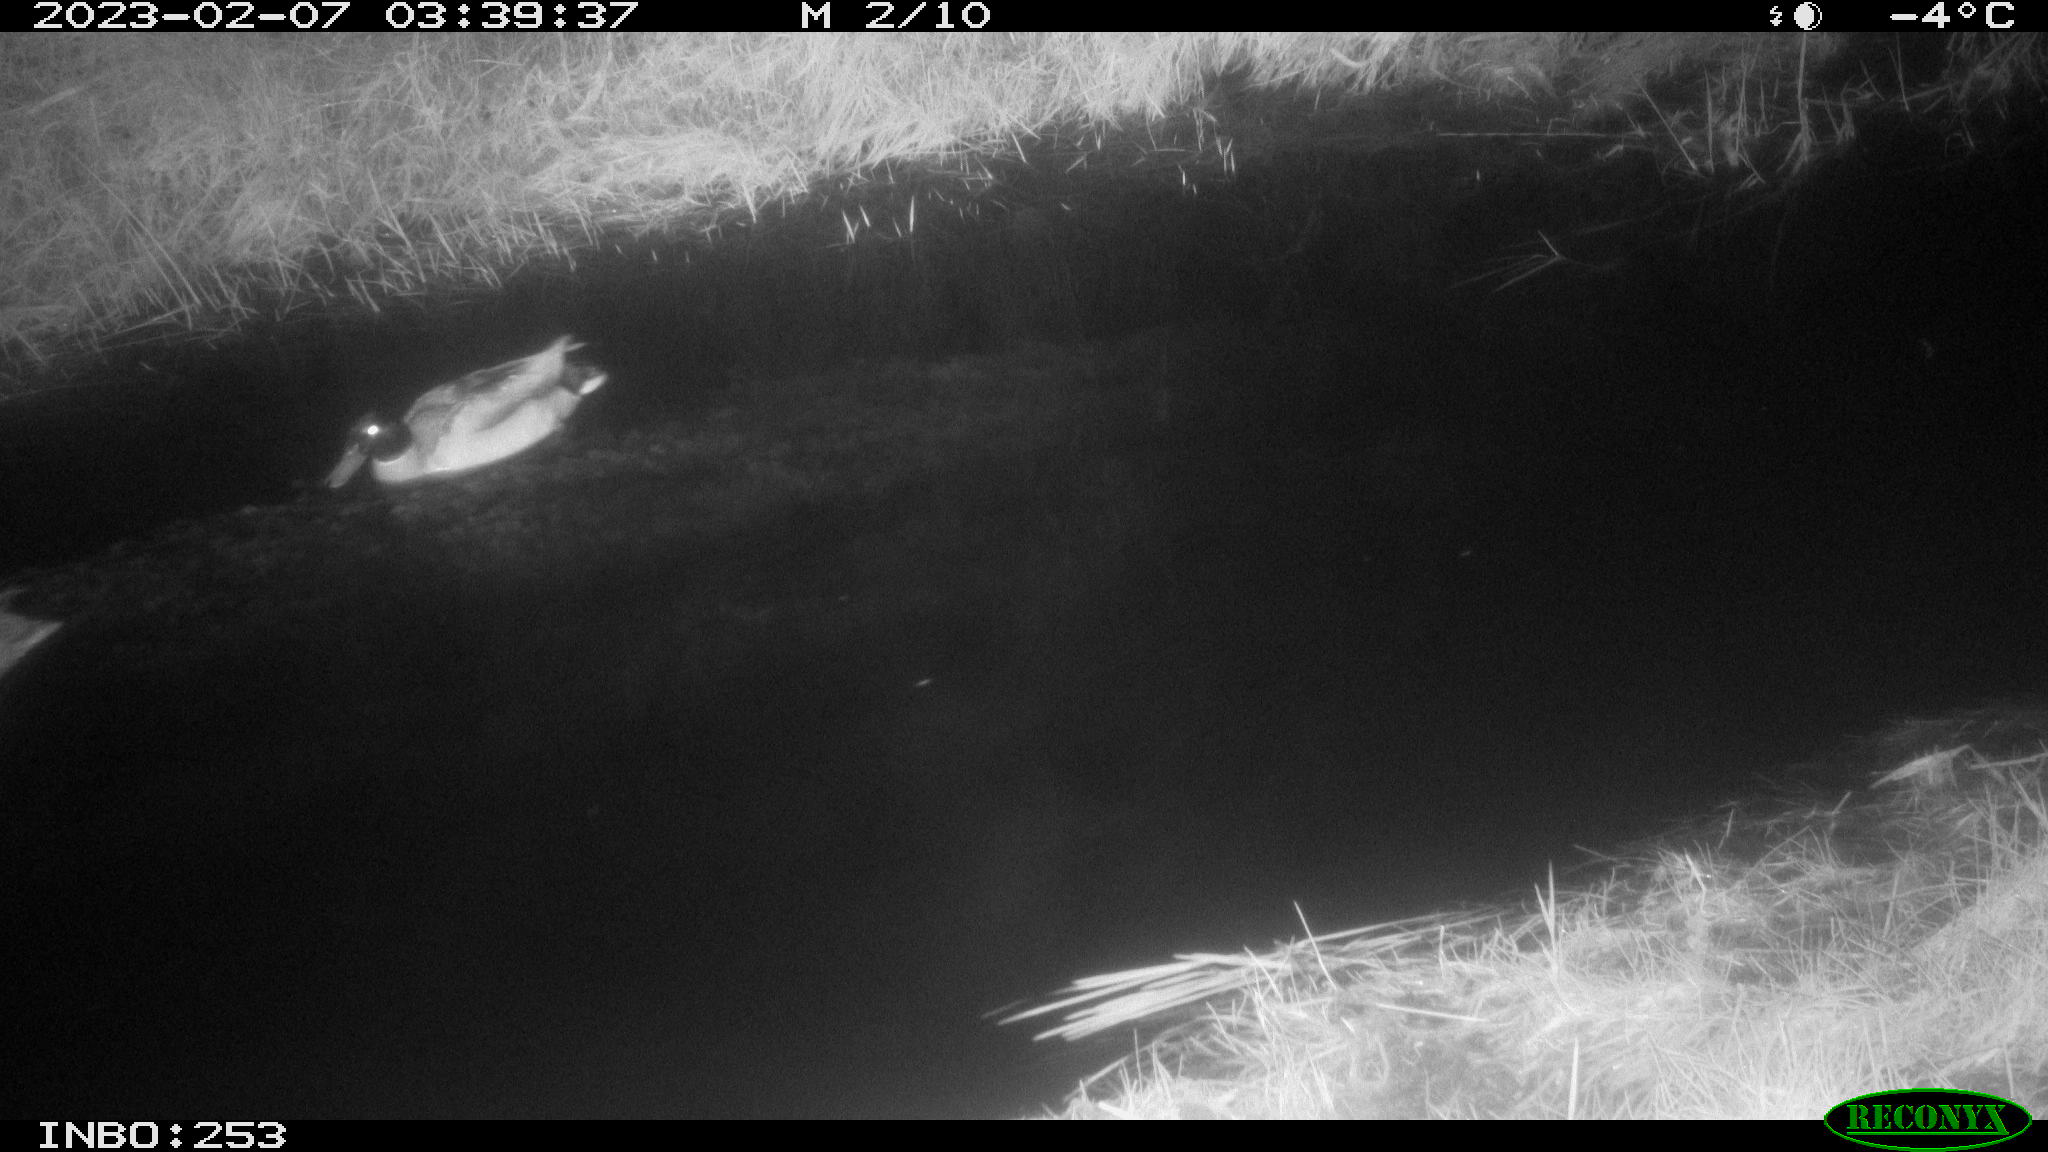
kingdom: Animalia
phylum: Chordata
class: Aves
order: Anseriformes
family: Anatidae
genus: Anas
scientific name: Anas
